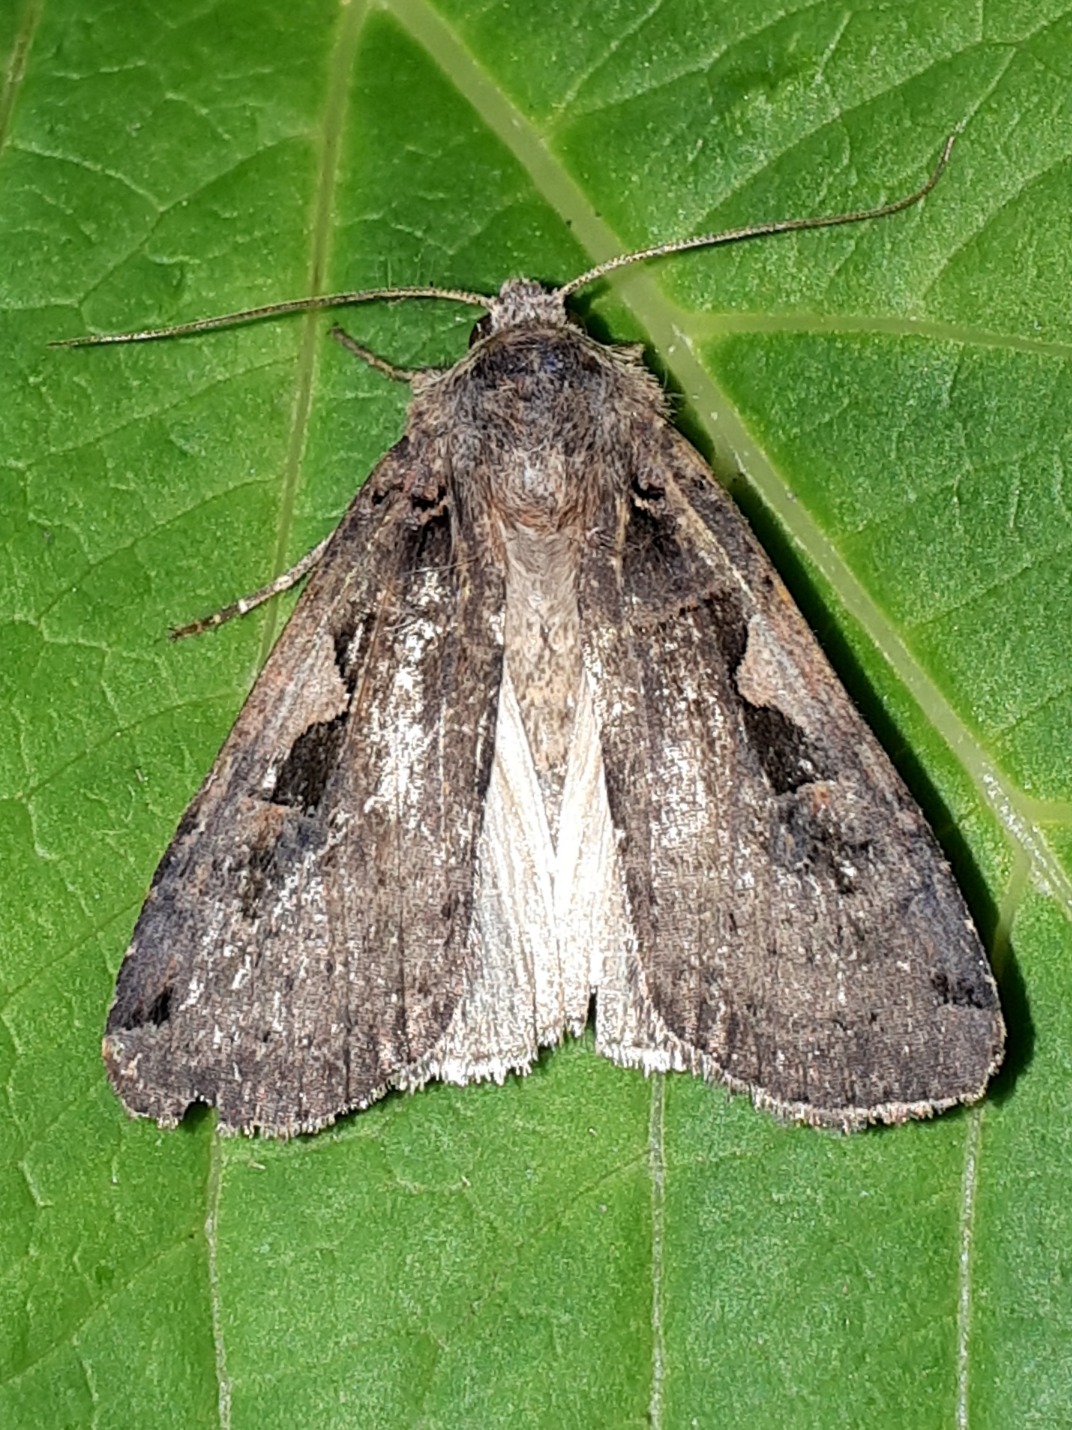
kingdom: Animalia
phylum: Arthropoda
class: Insecta
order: Lepidoptera
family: Noctuidae
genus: Xestia
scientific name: Xestia c-nigrum
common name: Det sorte c
